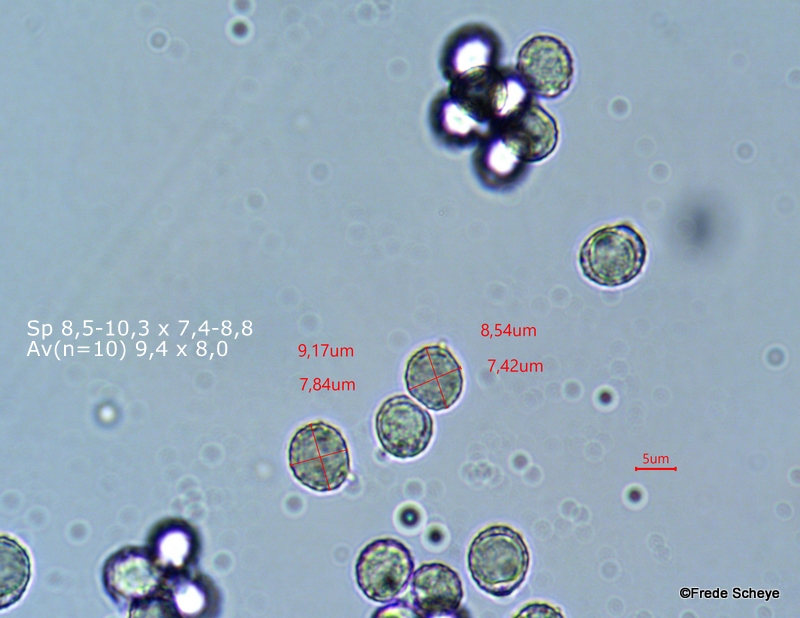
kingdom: Fungi
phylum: Basidiomycota
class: Agaricomycetes
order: Russulales
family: Russulaceae
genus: Lactifluus
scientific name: Lactifluus
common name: mælkehat
